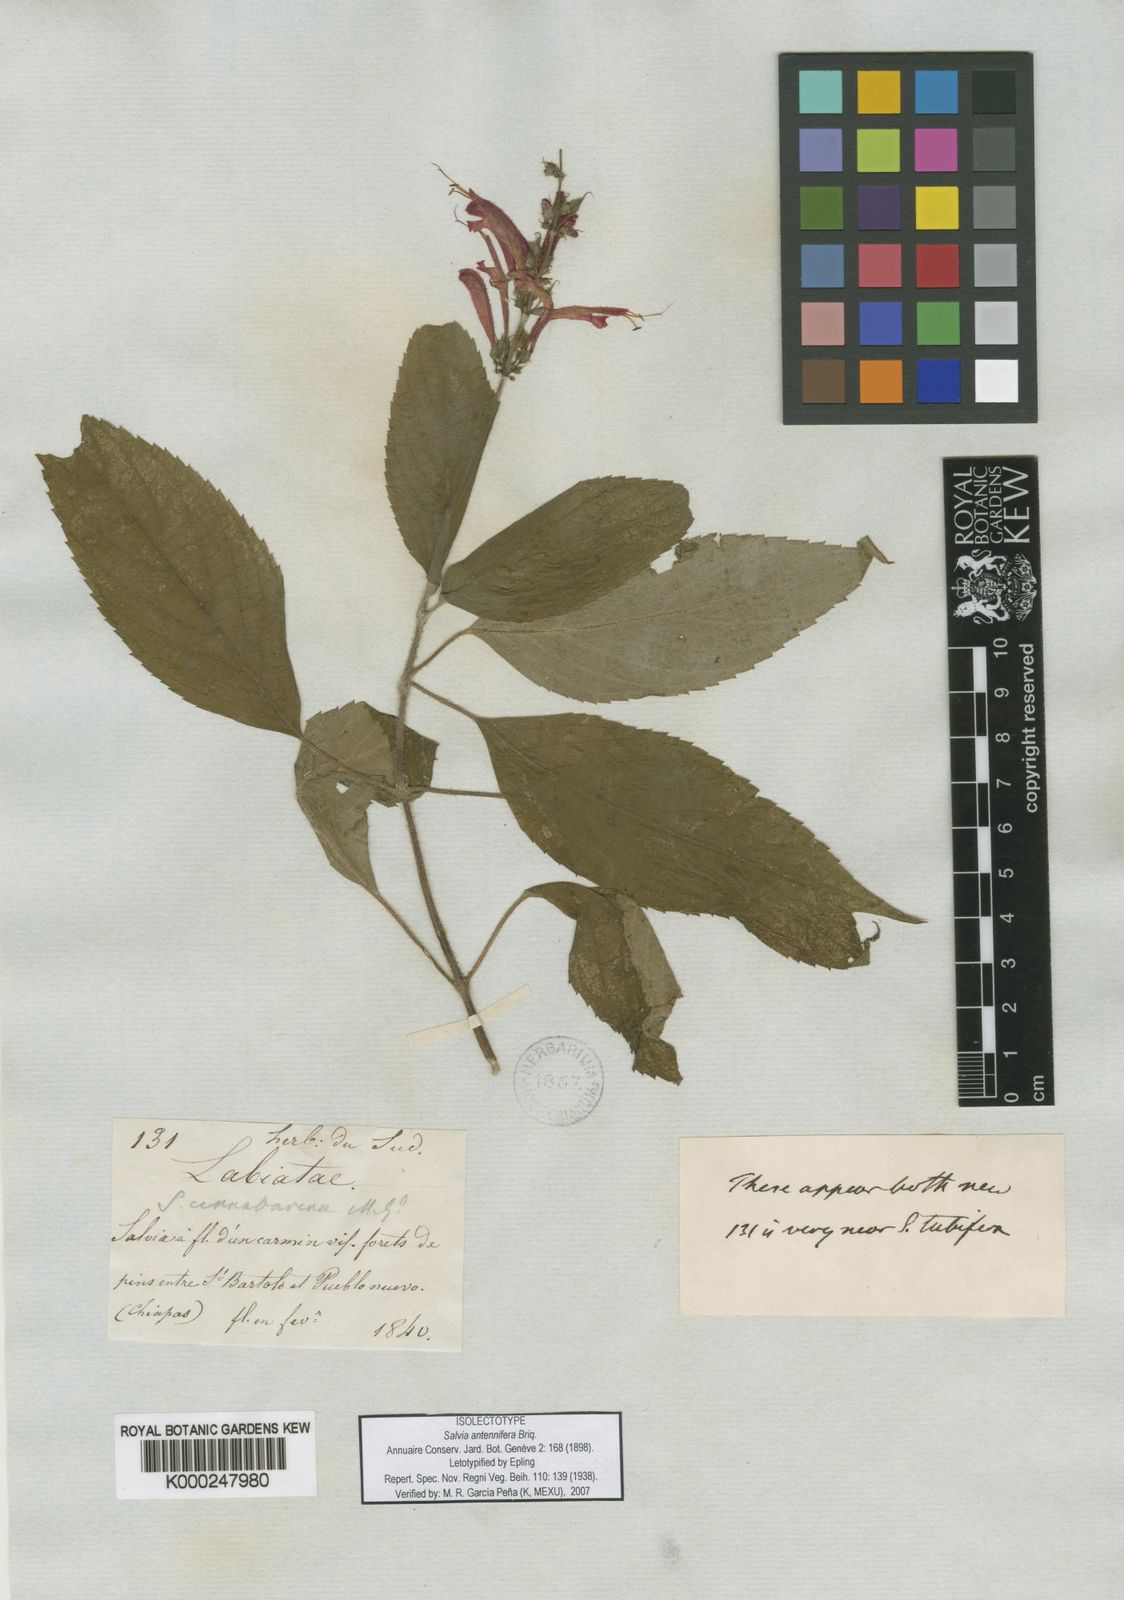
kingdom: Plantae
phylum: Tracheophyta
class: Magnoliopsida
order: Lamiales
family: Lamiaceae
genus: Salvia
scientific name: Salvia cinnabarina
